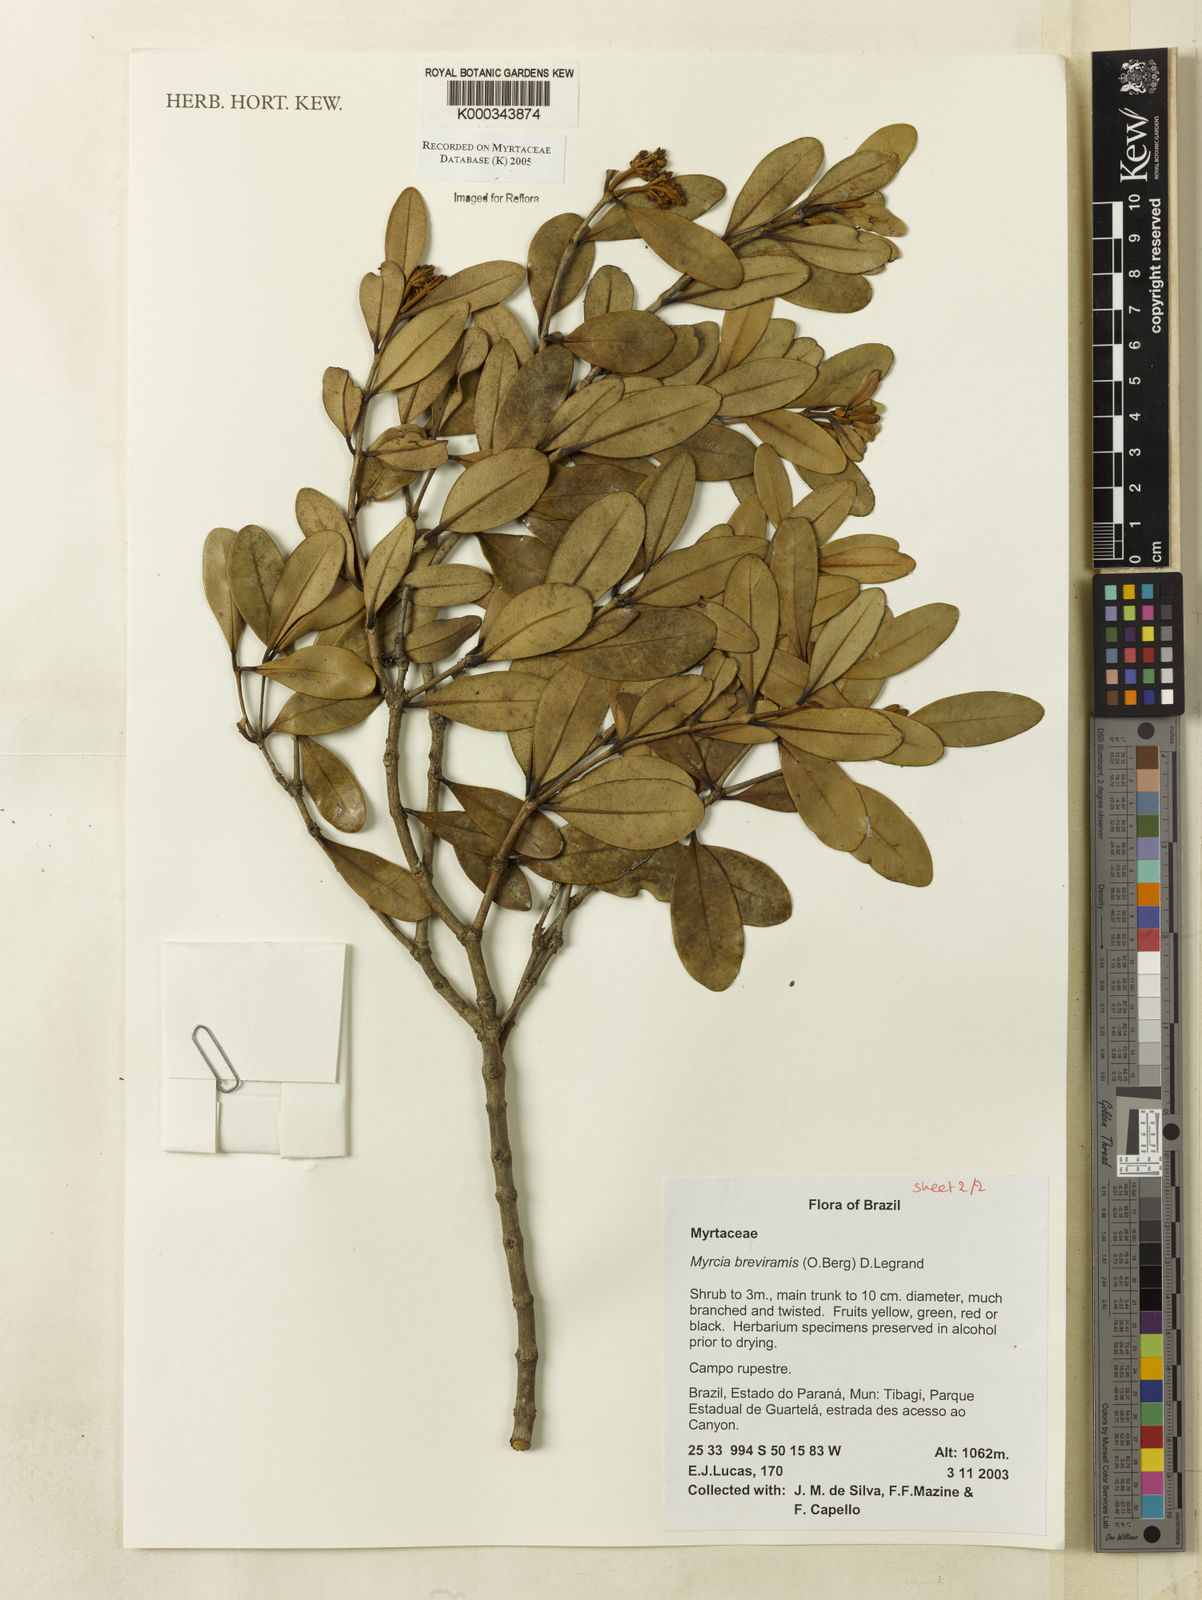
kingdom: Plantae
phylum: Tracheophyta
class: Magnoliopsida
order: Myrtales
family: Myrtaceae
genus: Myrcia
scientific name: Myrcia pulchra
